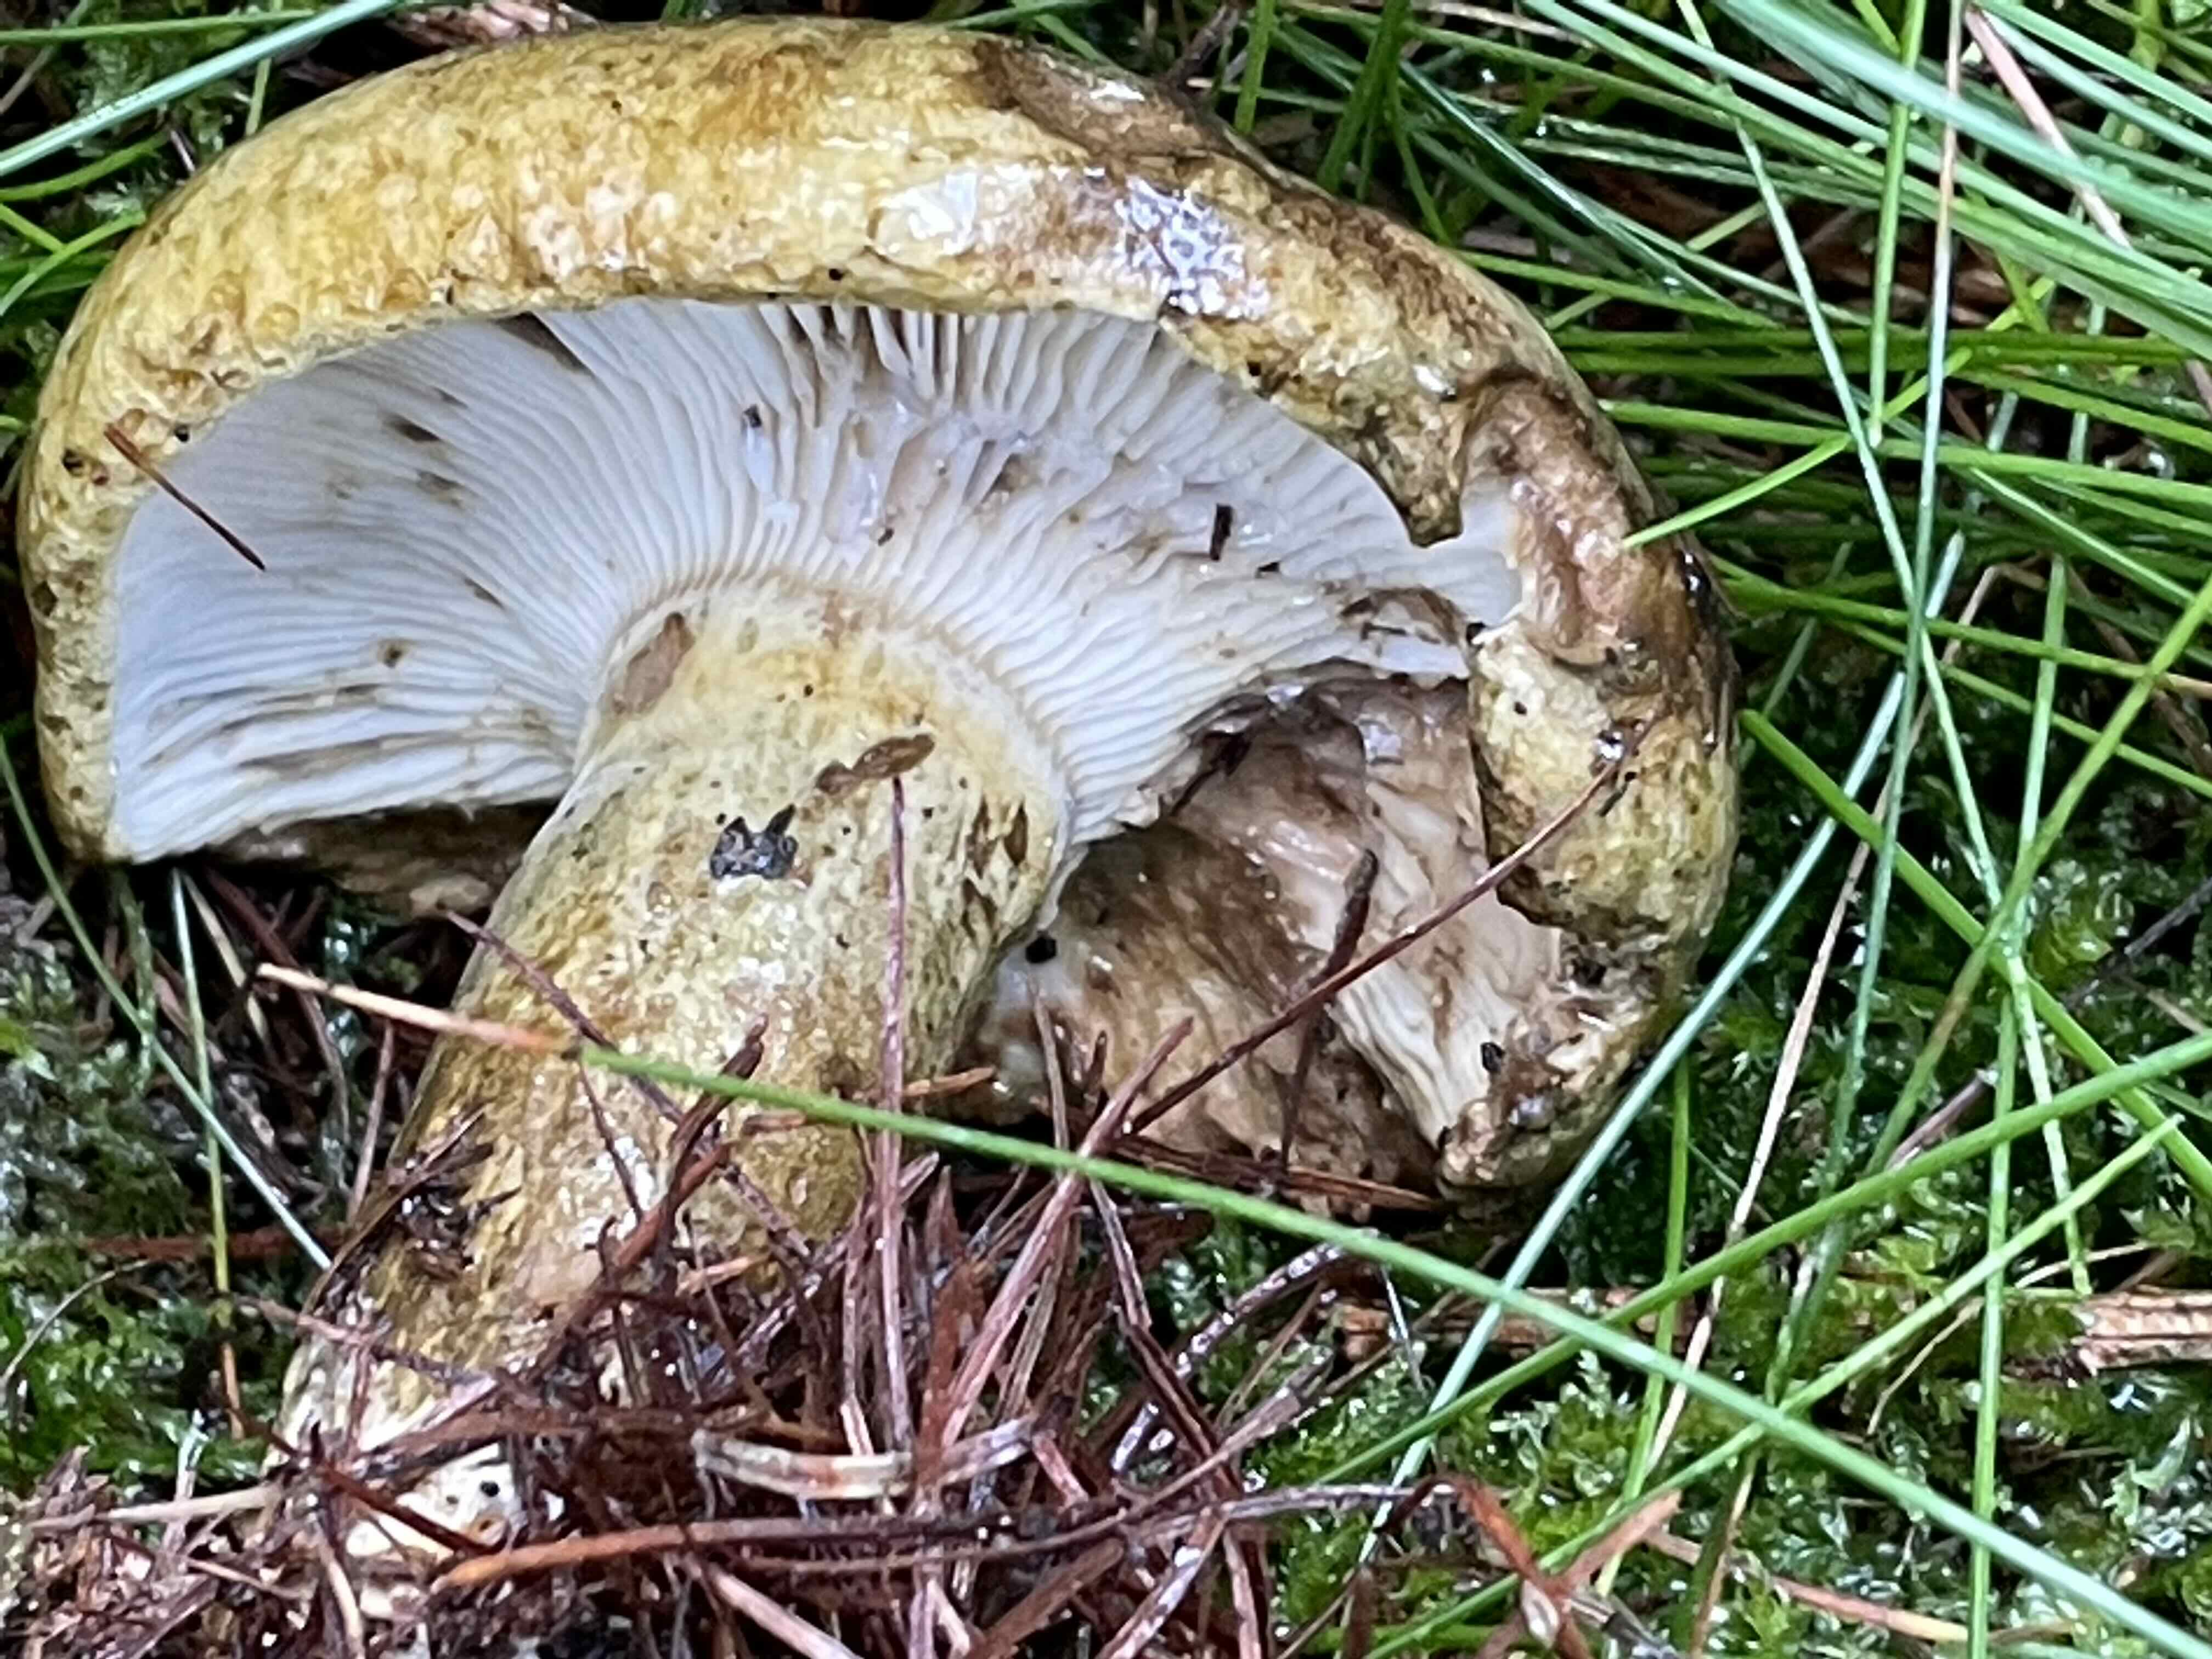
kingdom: Fungi
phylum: Basidiomycota
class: Agaricomycetes
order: Russulales
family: Russulaceae
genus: Lactarius
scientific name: Lactarius necator
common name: manddraber-mælkehat
